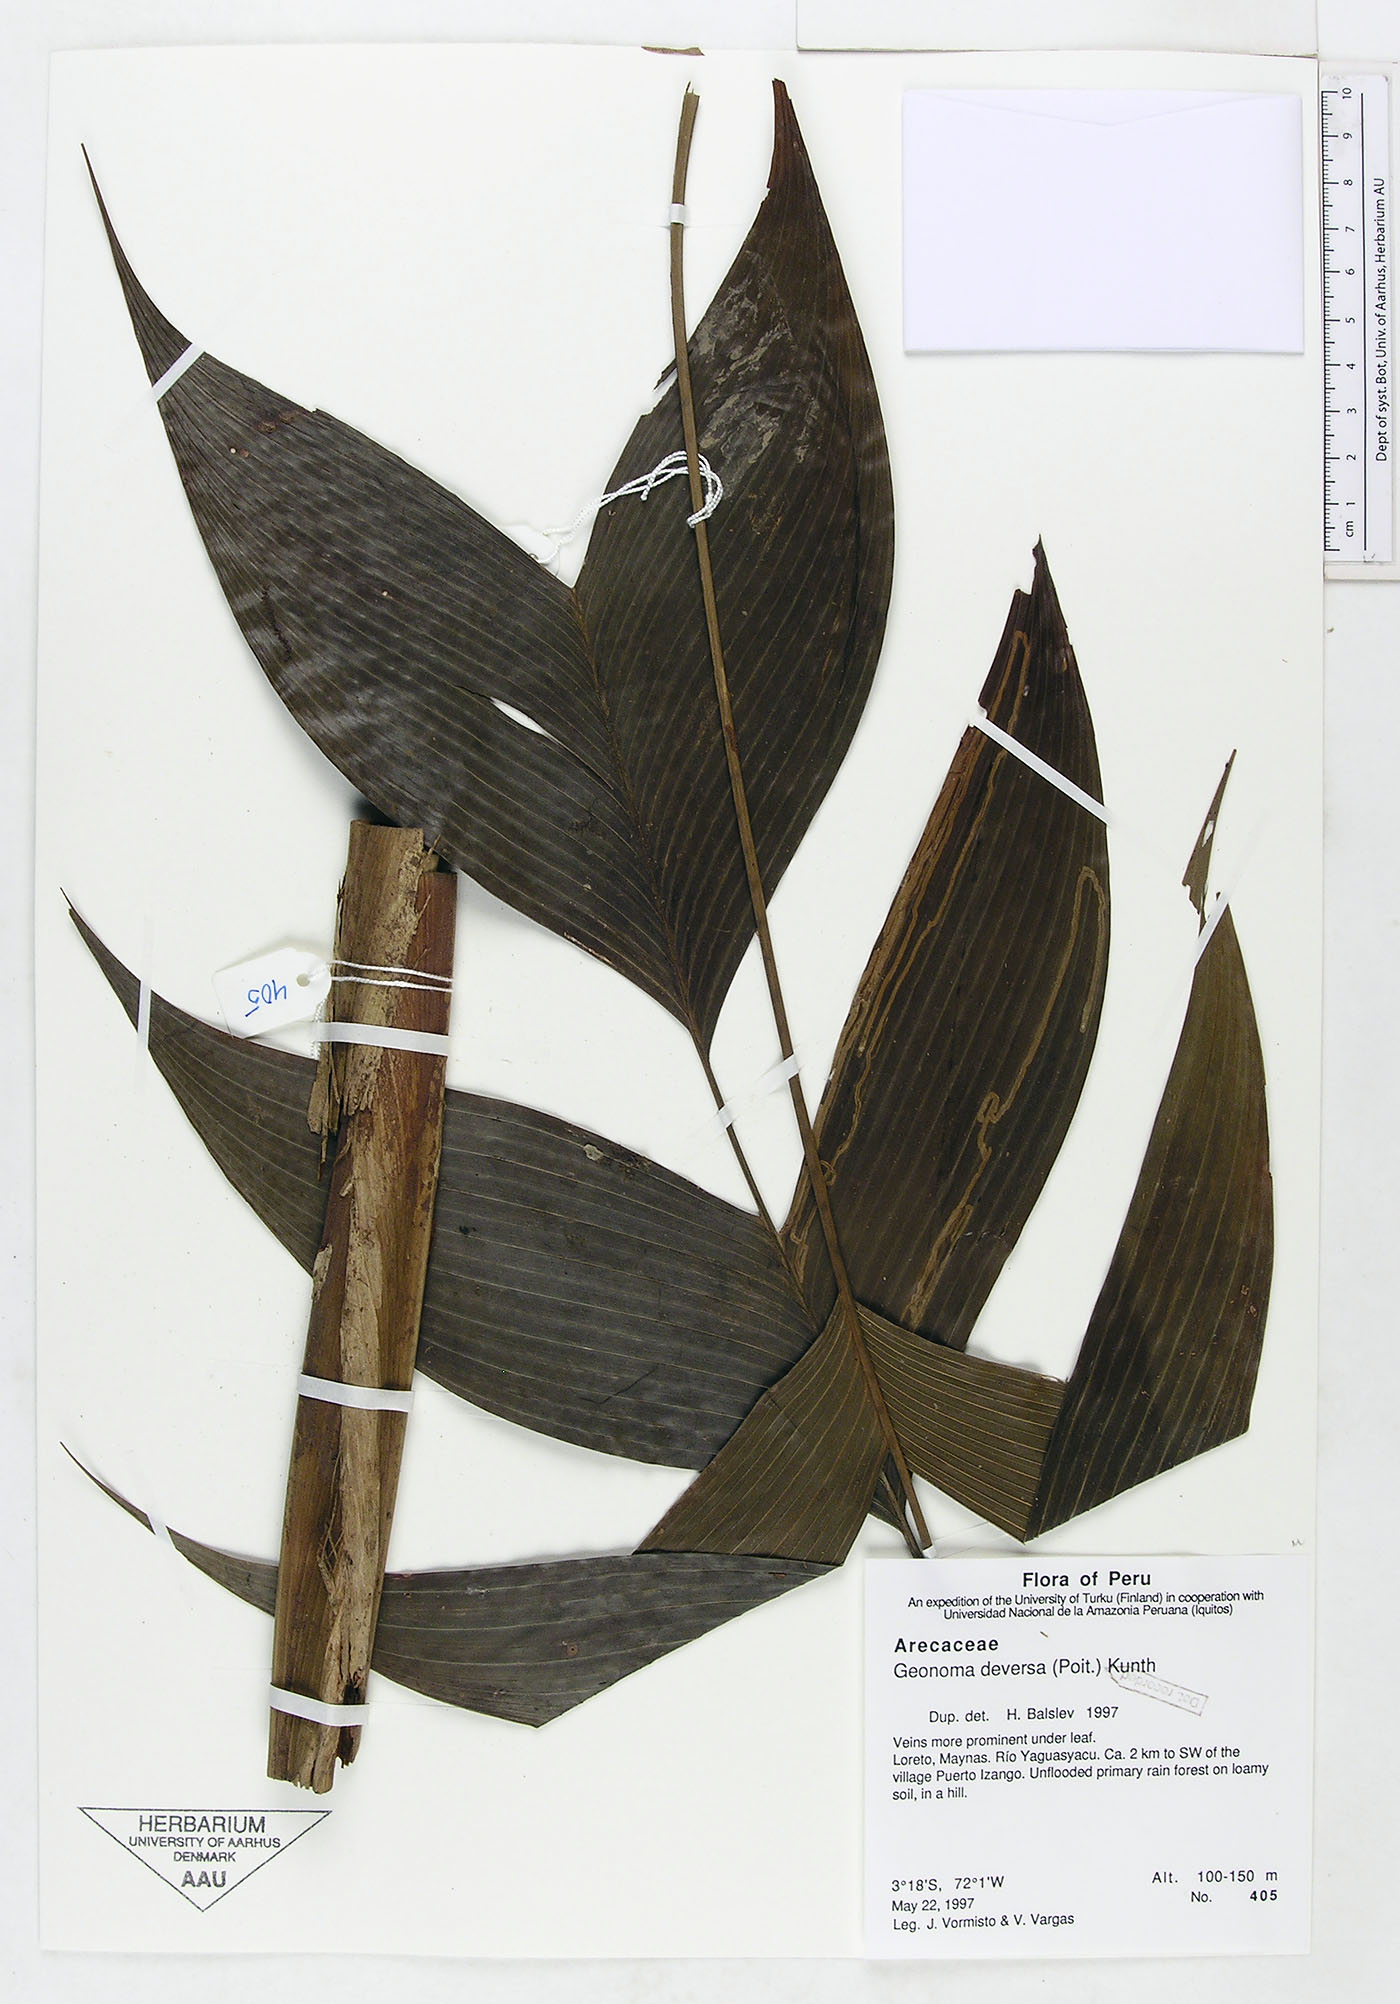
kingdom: Plantae
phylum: Tracheophyta
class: Liliopsida
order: Arecales
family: Arecaceae
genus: Geonoma
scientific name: Geonoma deversa
